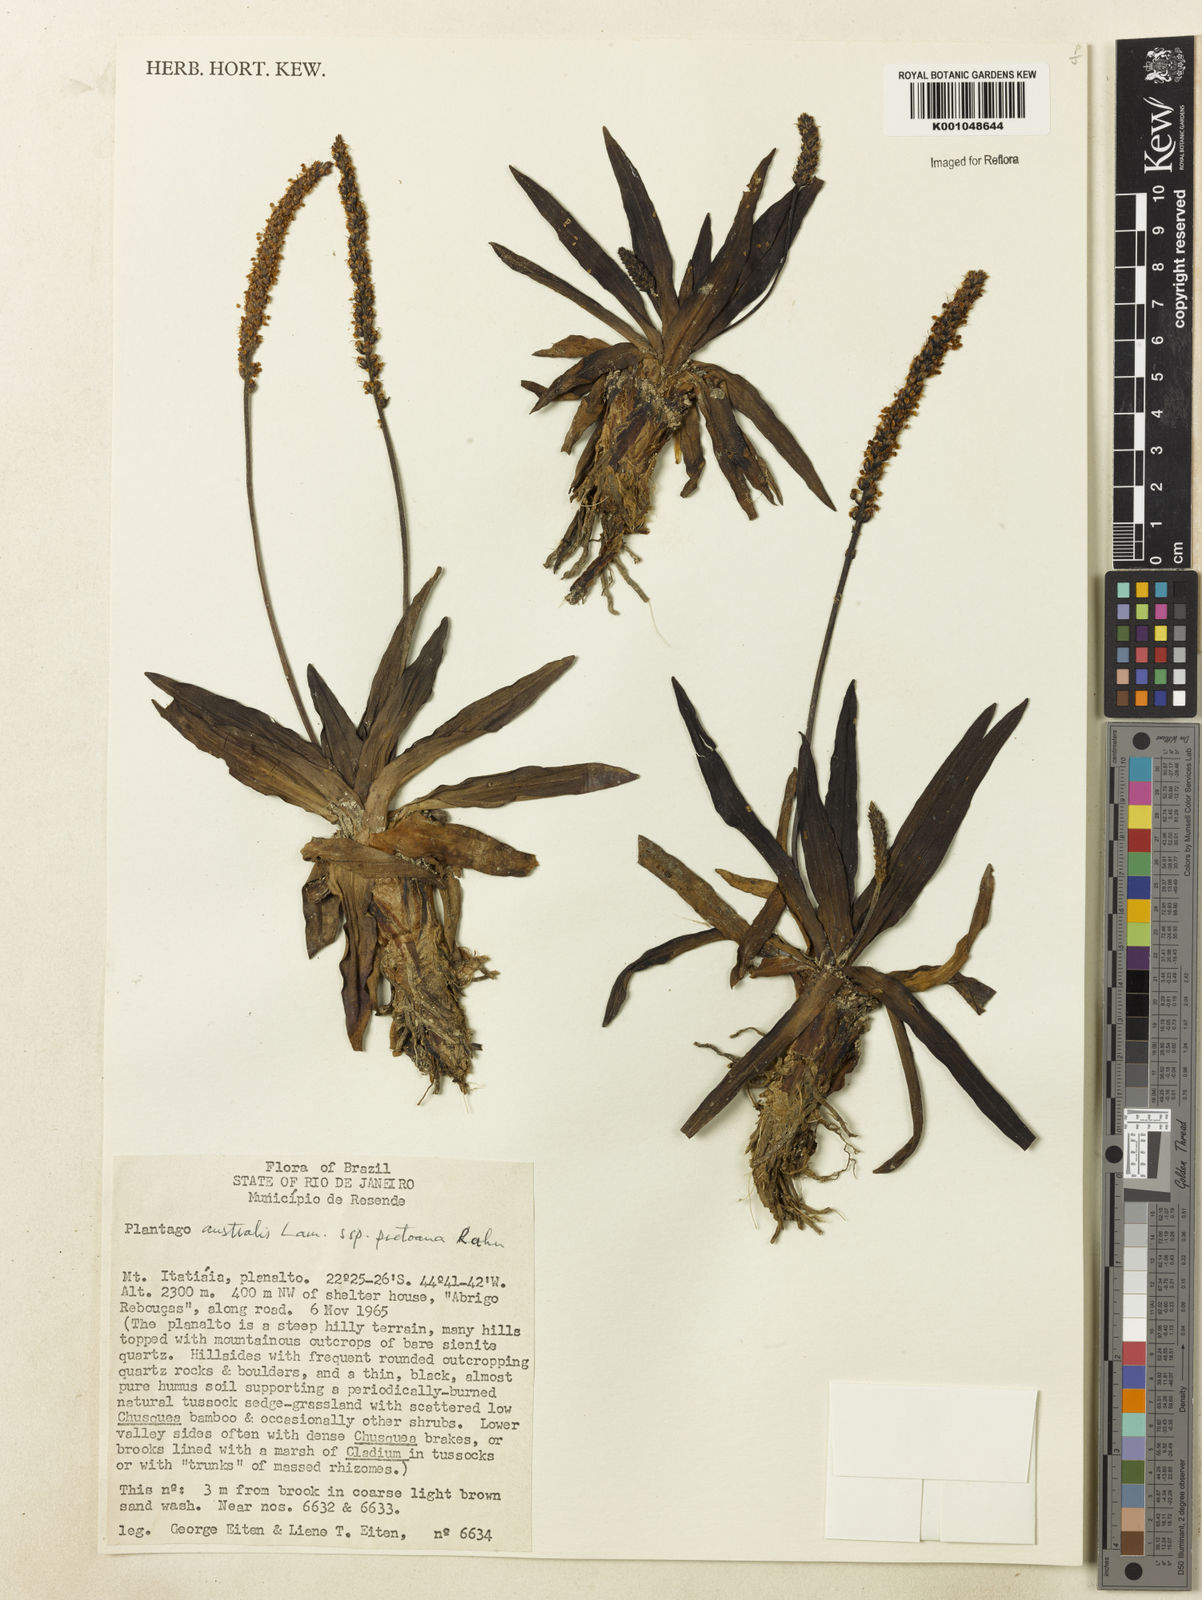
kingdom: Plantae
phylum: Tracheophyta
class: Magnoliopsida
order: Lamiales
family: Plantaginaceae
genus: Plantago
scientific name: Plantago australis
